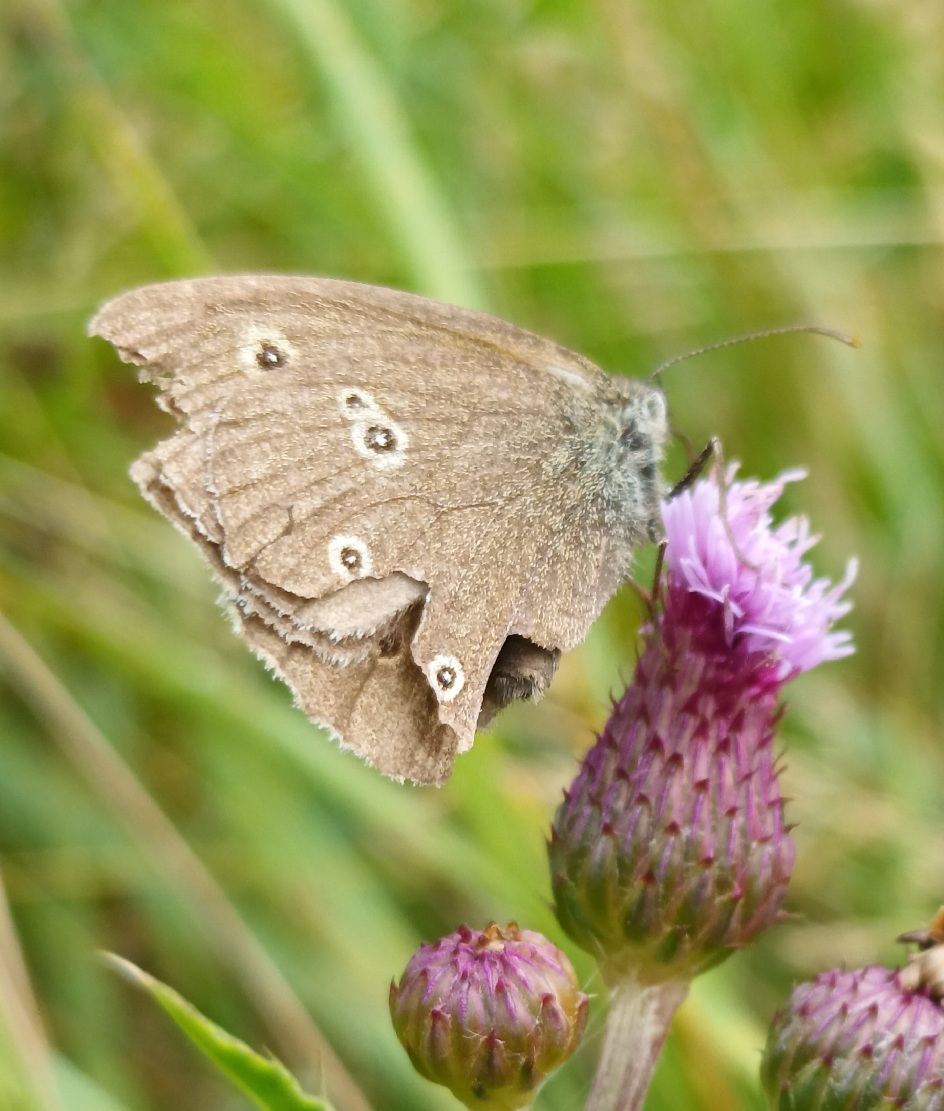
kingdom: Animalia
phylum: Arthropoda
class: Insecta
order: Lepidoptera
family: Nymphalidae
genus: Aphantopus
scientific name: Aphantopus hyperantus
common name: Engrandøje
